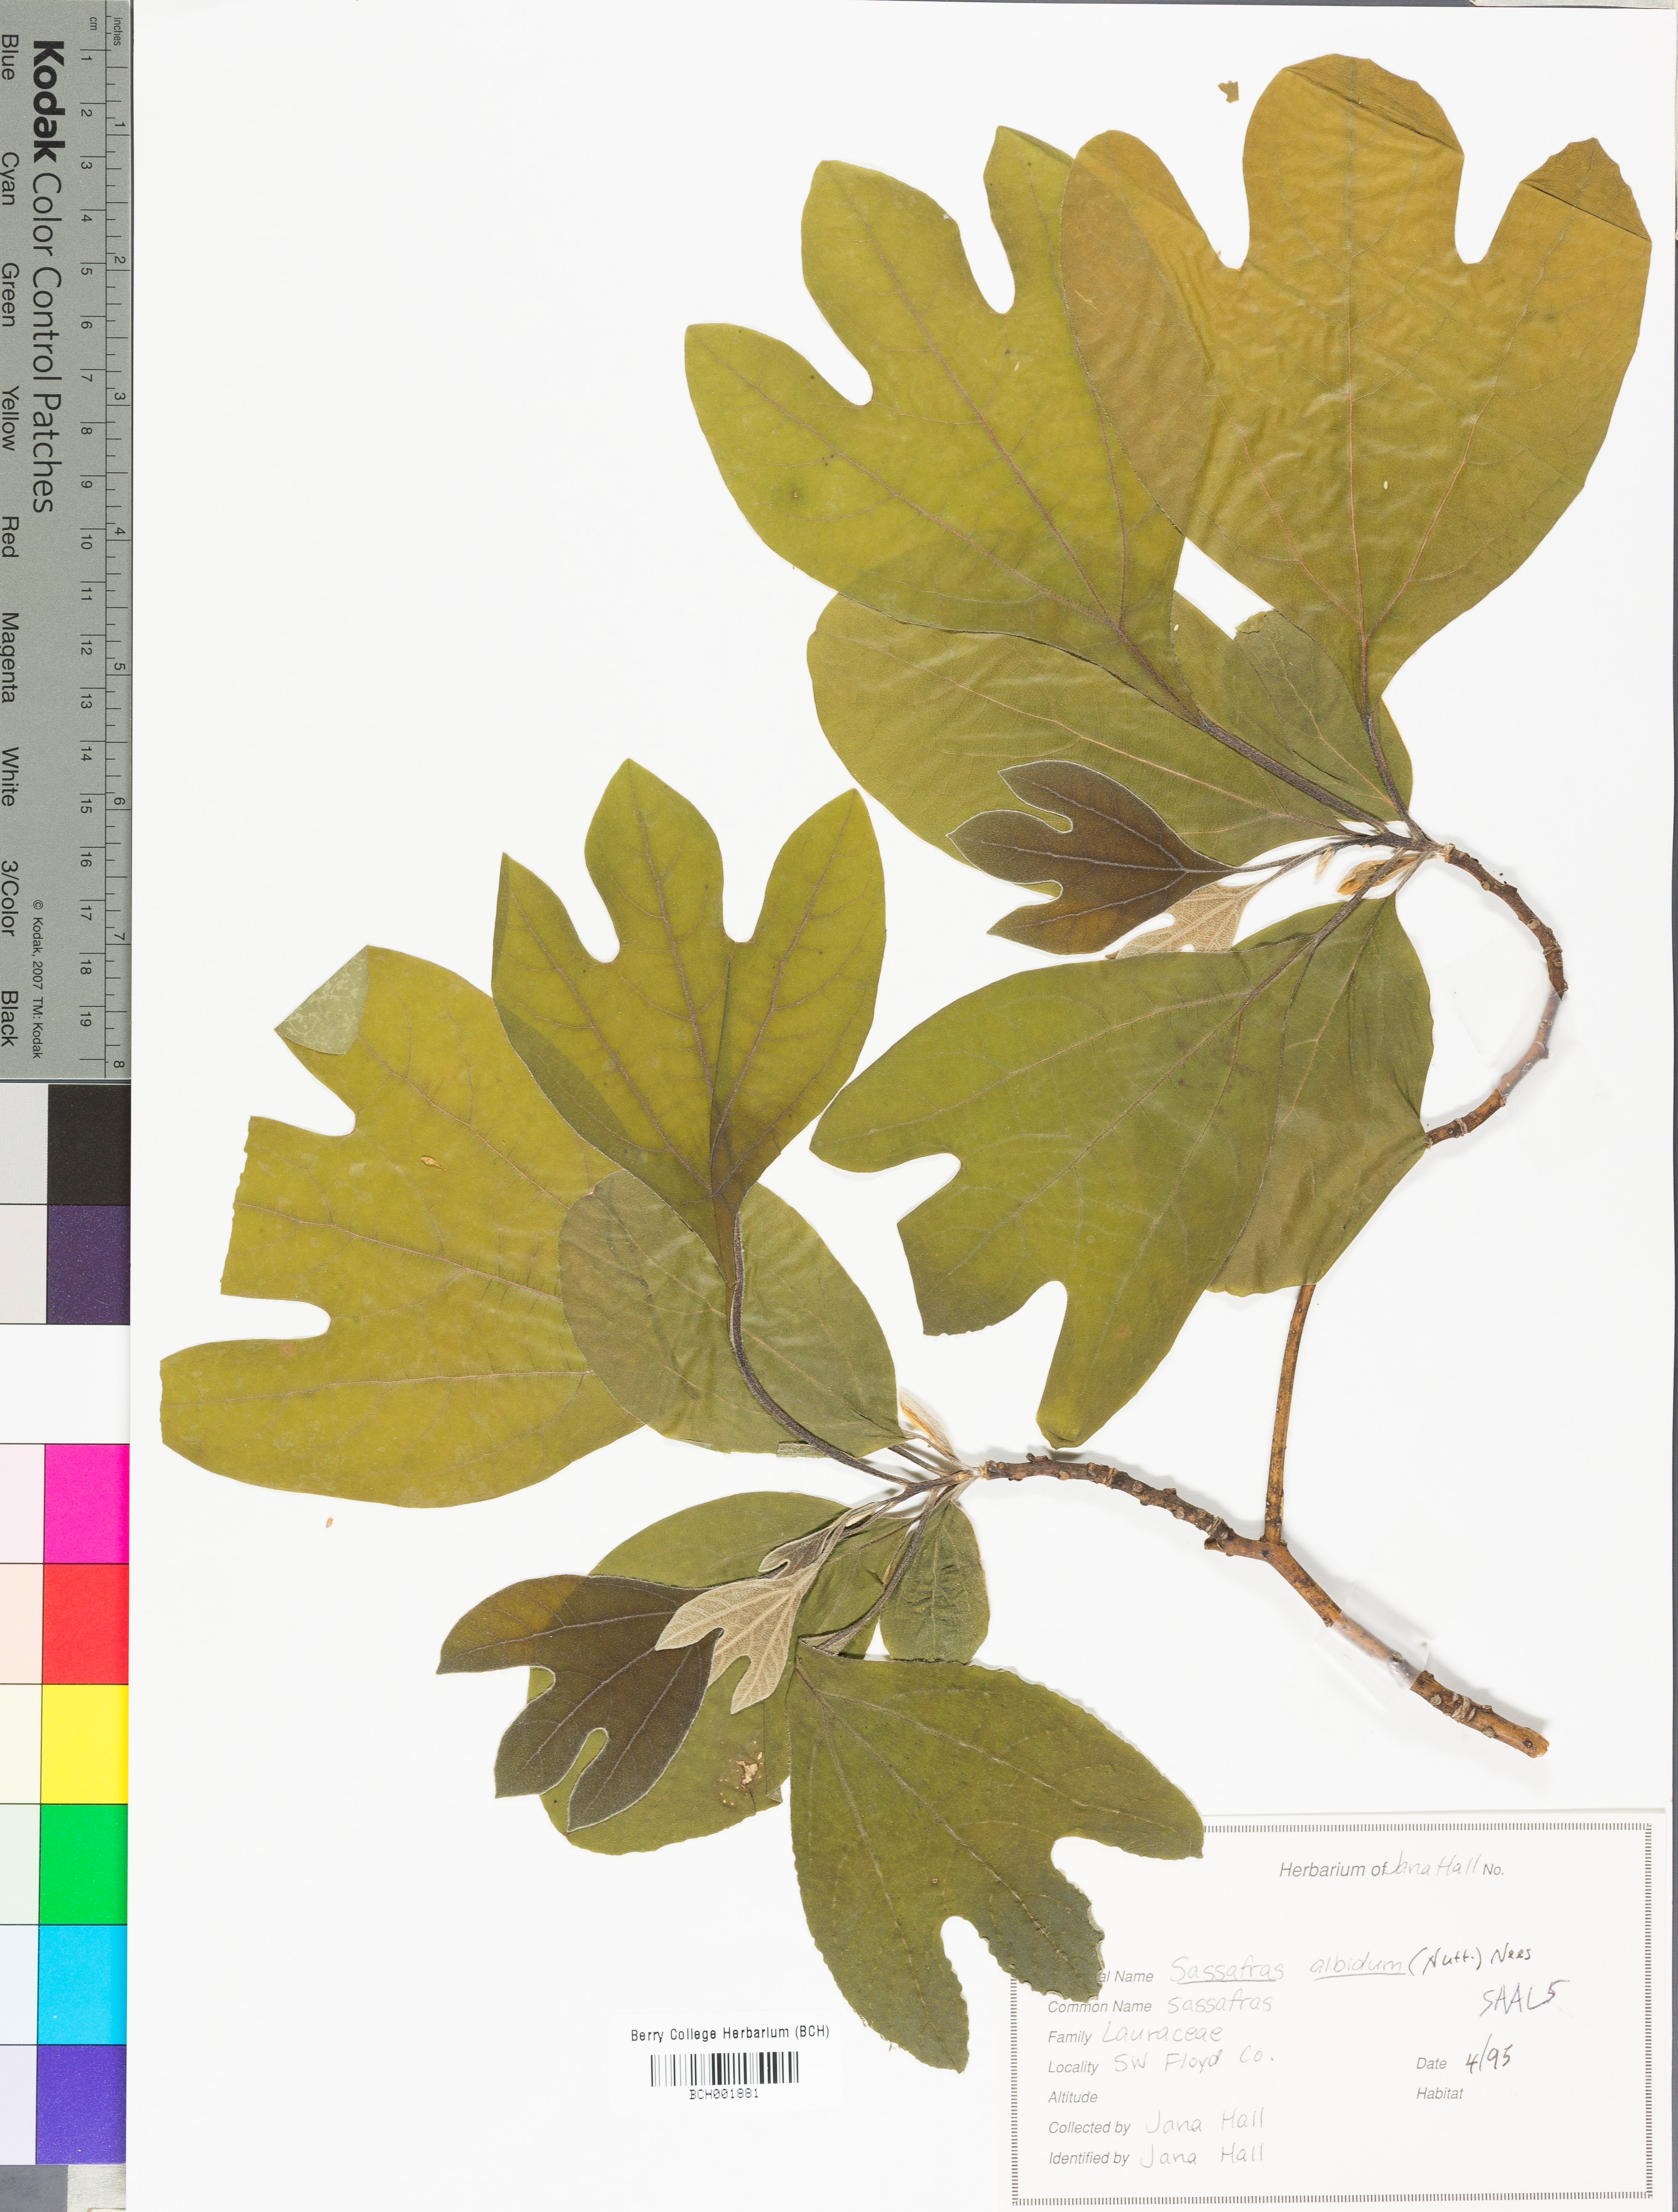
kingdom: Plantae
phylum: Tracheophyta
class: Magnoliopsida
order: Laurales
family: Lauraceae
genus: Sassafras
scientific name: Sassafras albidum
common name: Sassafras
